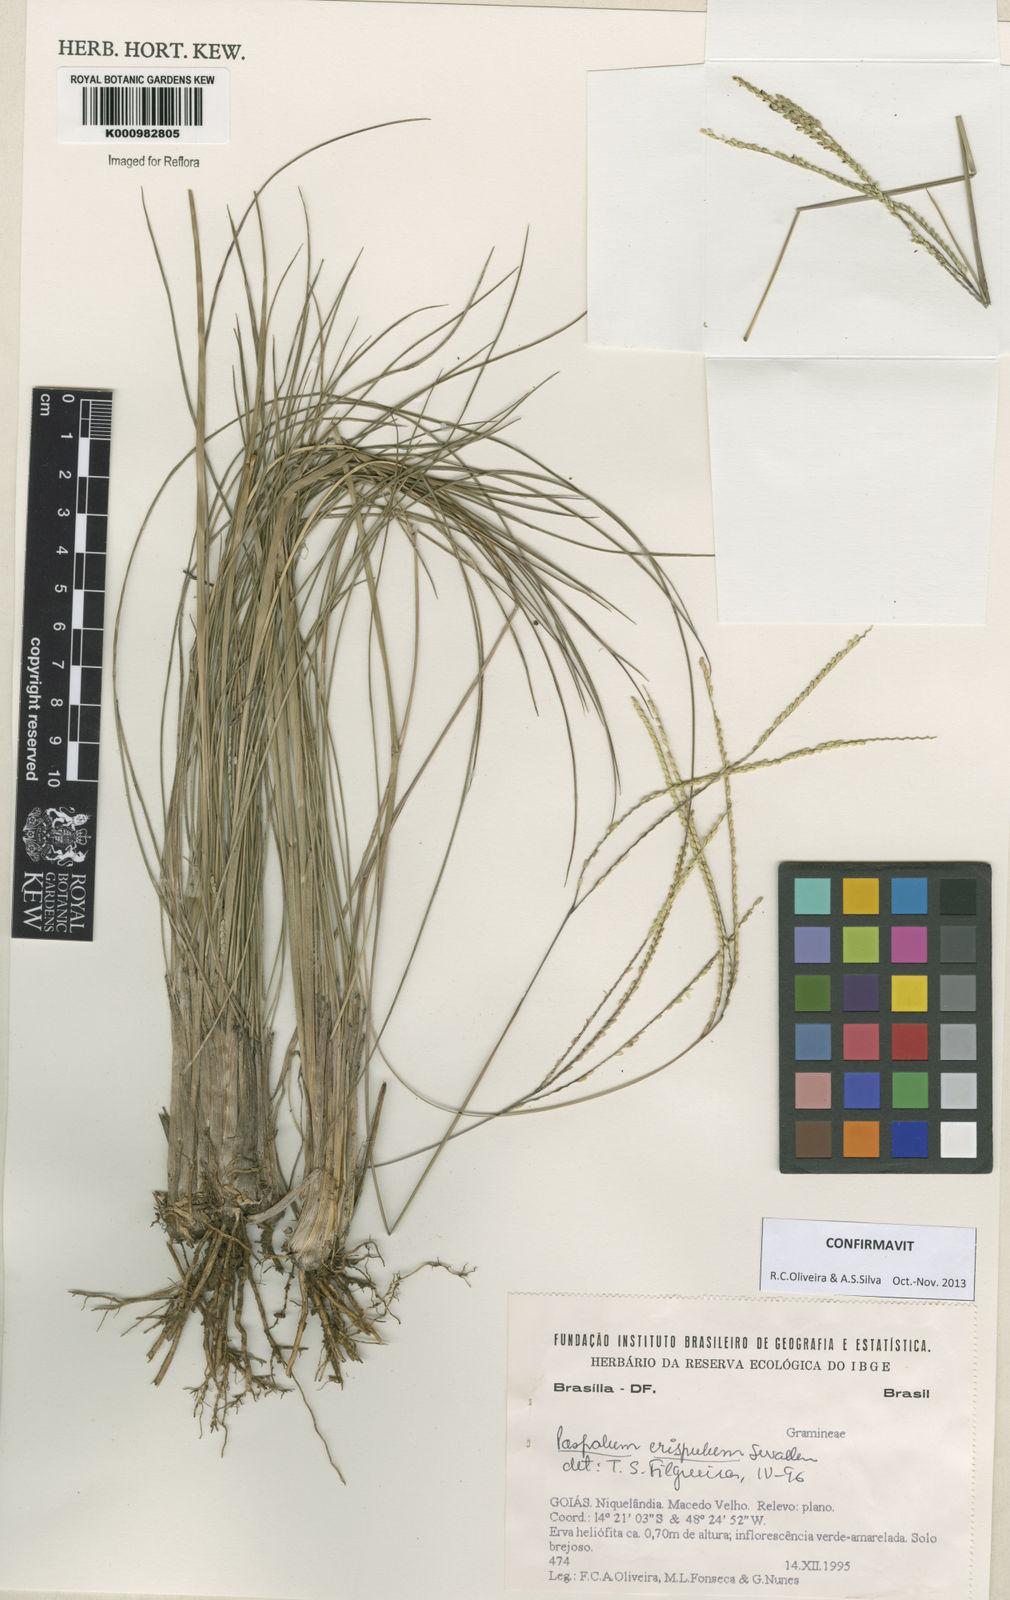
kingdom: Plantae
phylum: Tracheophyta
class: Liliopsida
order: Poales
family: Poaceae
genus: Paspalum
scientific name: Paspalum crispulum
